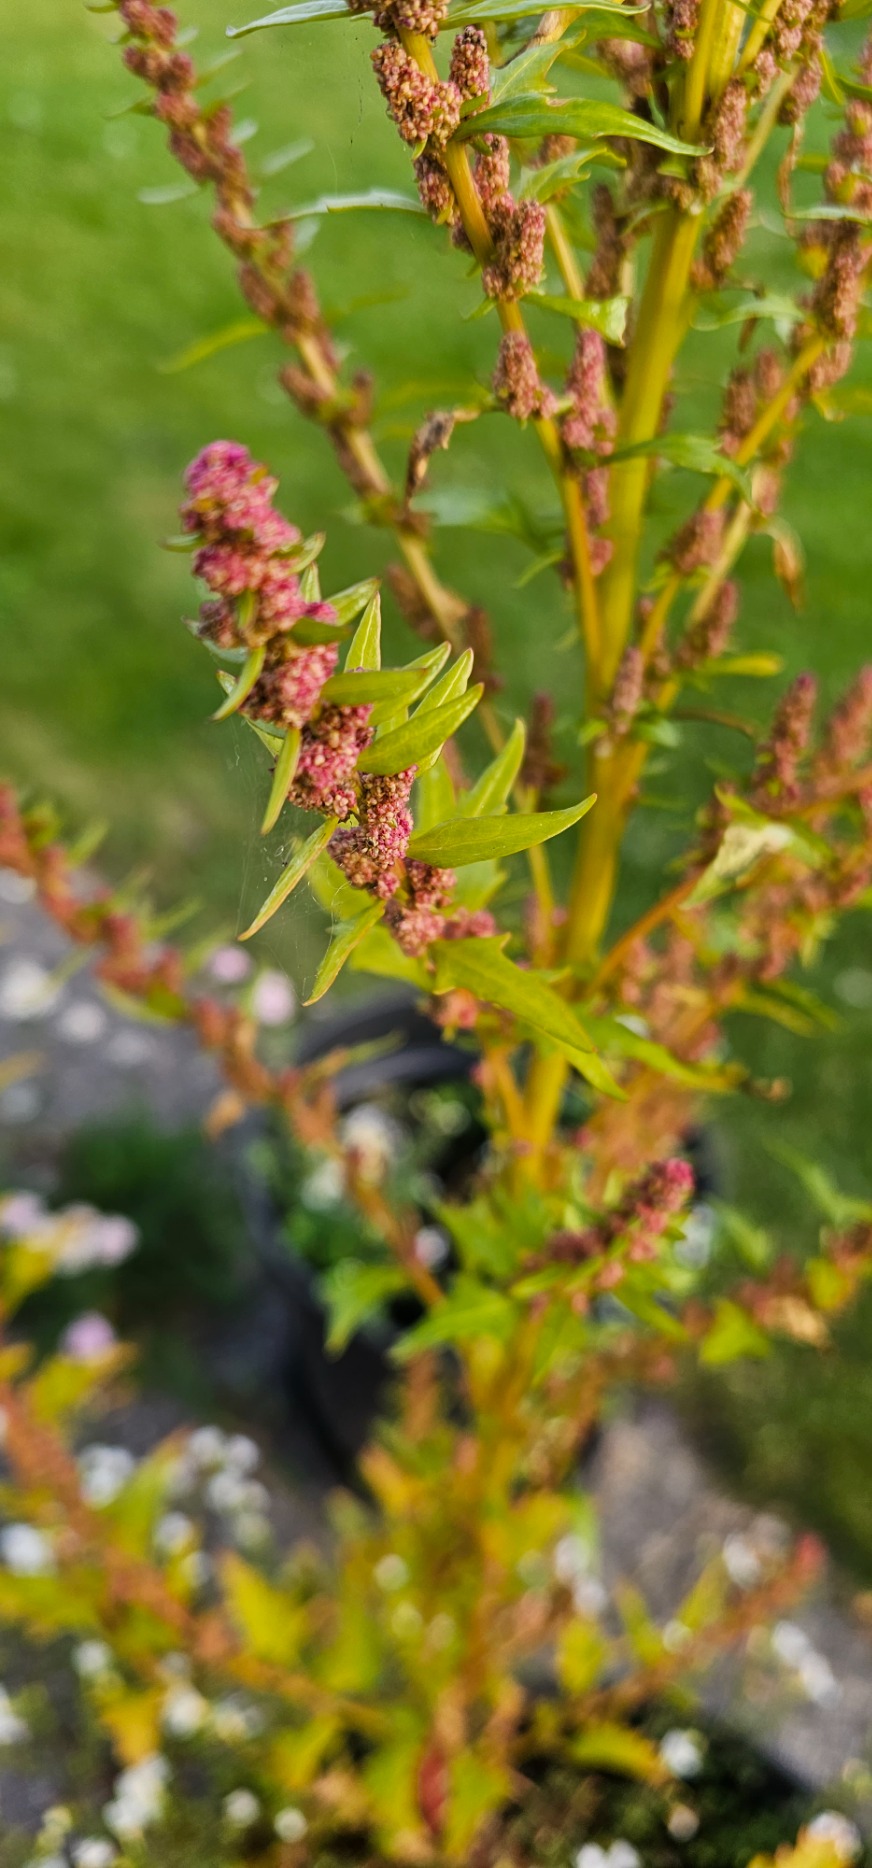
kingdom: Plantae
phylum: Tracheophyta
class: Magnoliopsida
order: Caryophyllales
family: Amaranthaceae
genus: Oxybasis
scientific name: Oxybasis rubra
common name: Rød gåsefod
